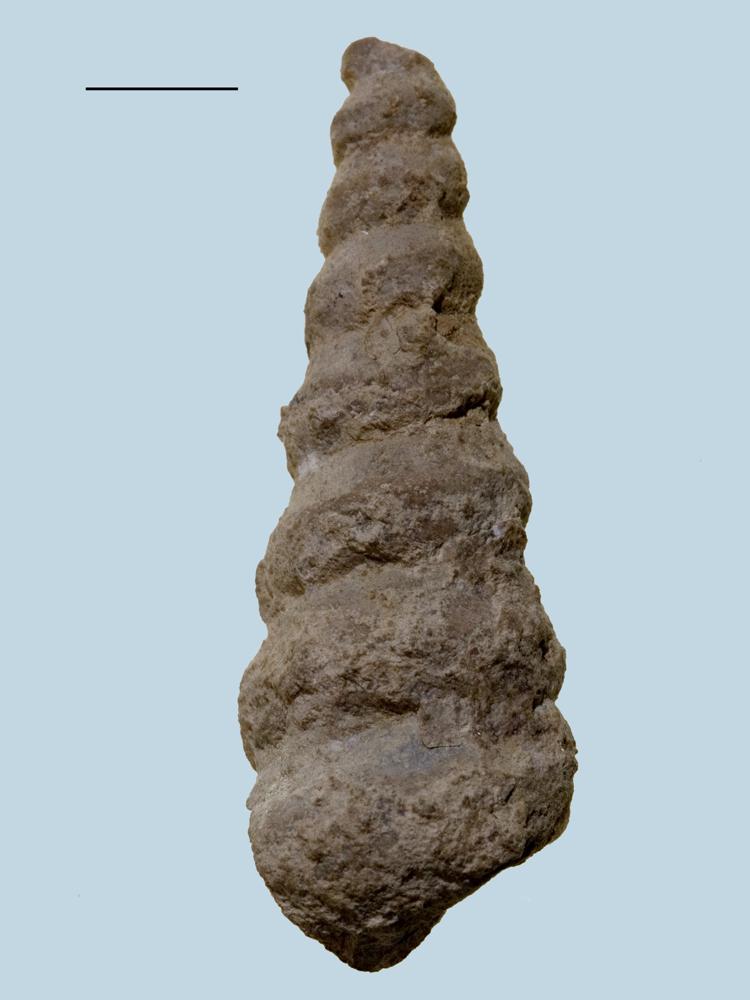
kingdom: Animalia
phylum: Mollusca
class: Gastropoda
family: Lophospiridae
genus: Ectomaria
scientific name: Ectomaria Murchisonia nieszkowskii
